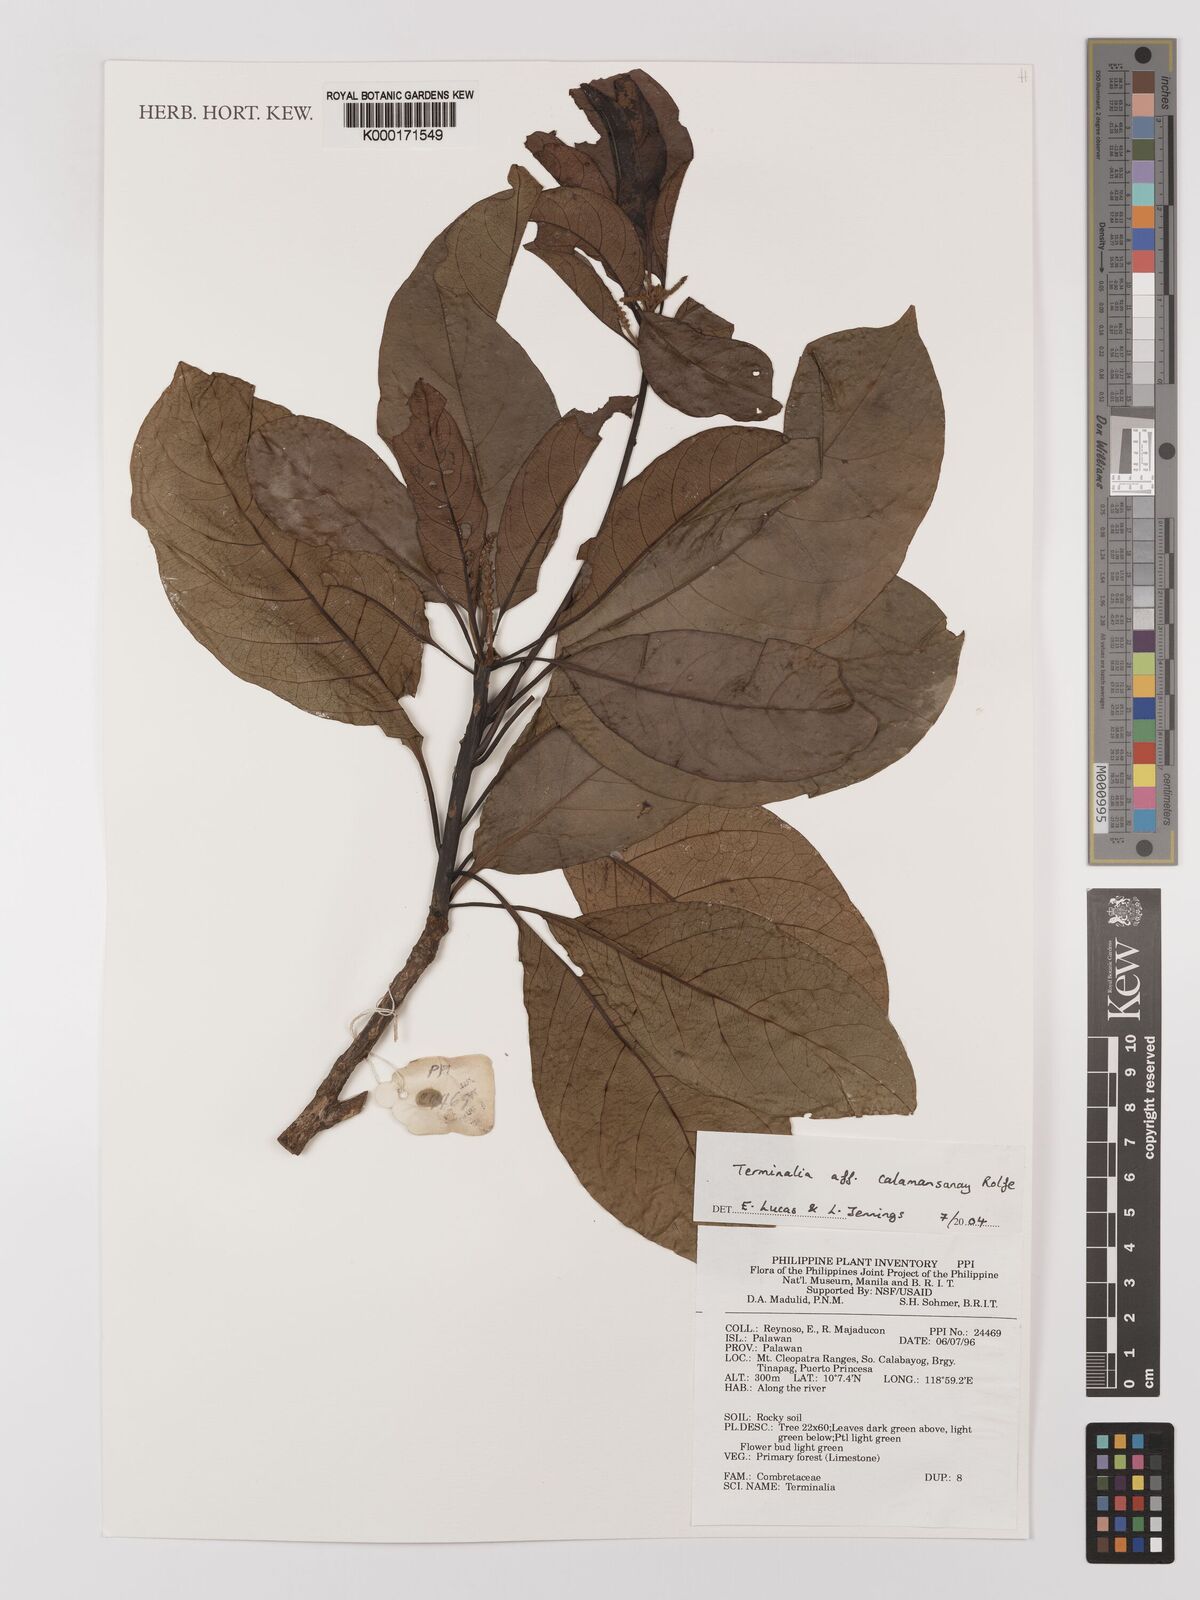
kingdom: Plantae
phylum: Tracheophyta
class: Magnoliopsida
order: Myrtales
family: Combretaceae
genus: Terminalia
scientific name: Terminalia calamansanai
